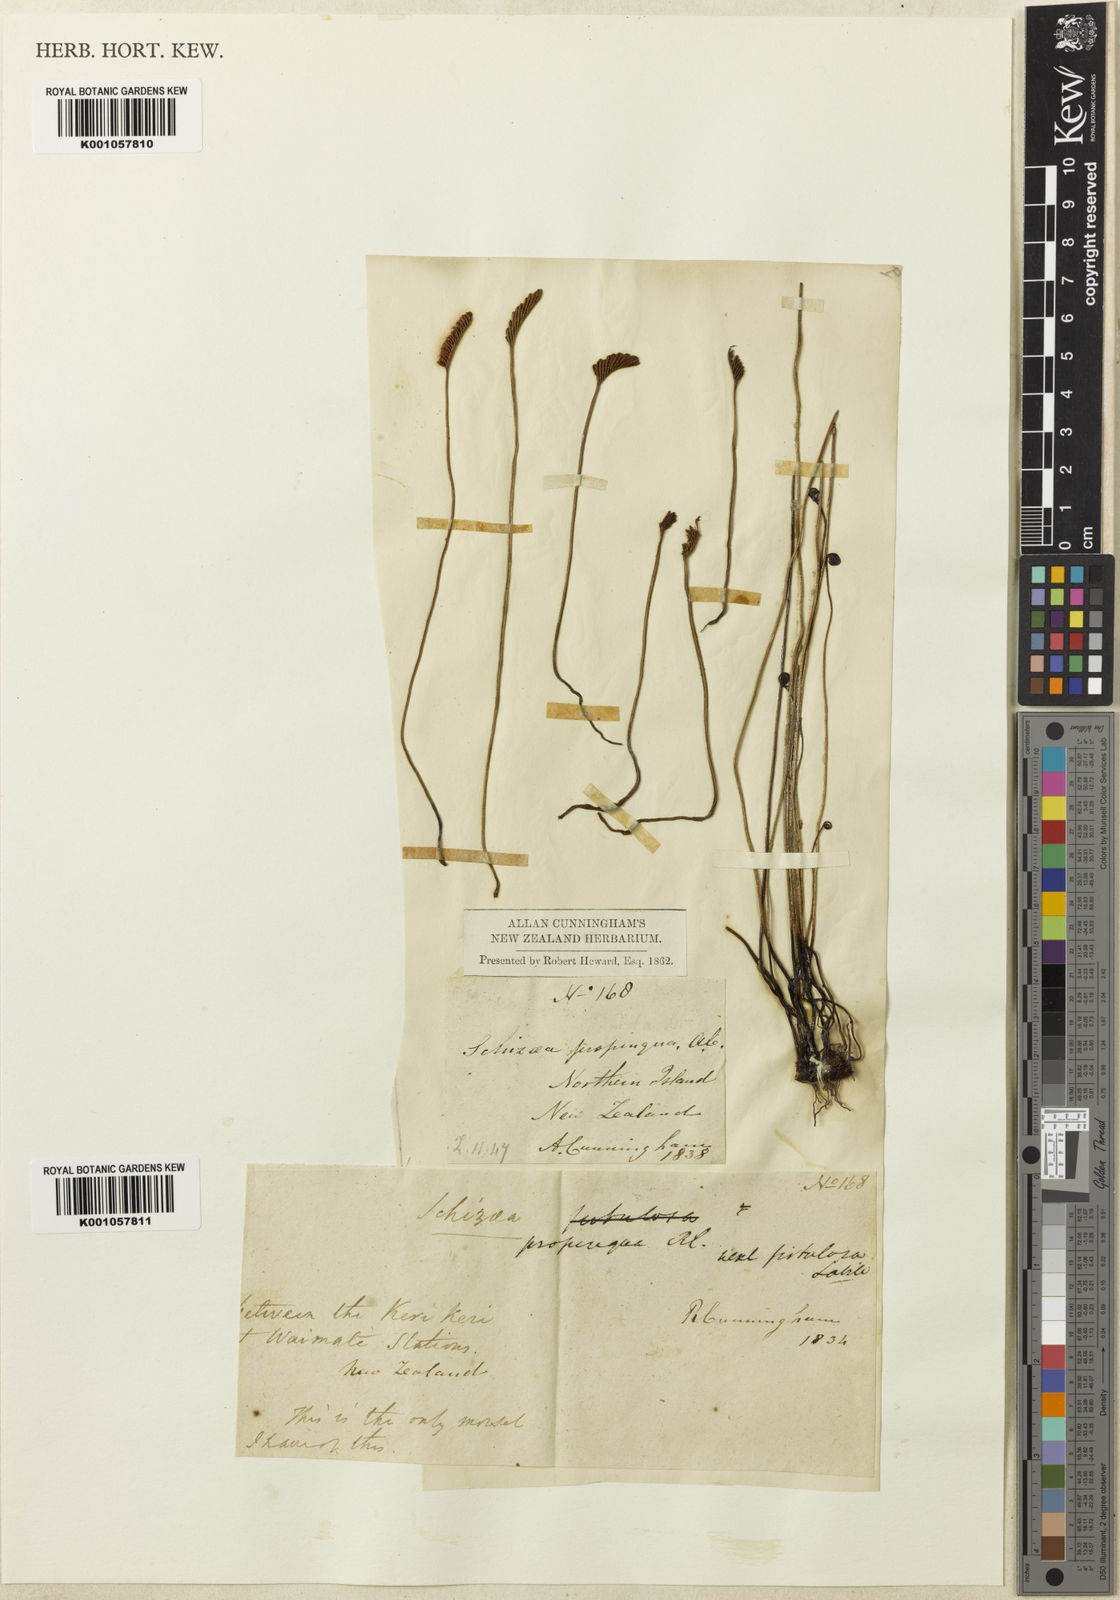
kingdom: Plantae
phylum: Tracheophyta
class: Polypodiopsida
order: Schizaeales
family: Schizaeaceae
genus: Microschizaea
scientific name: Microschizaea fistulosa
